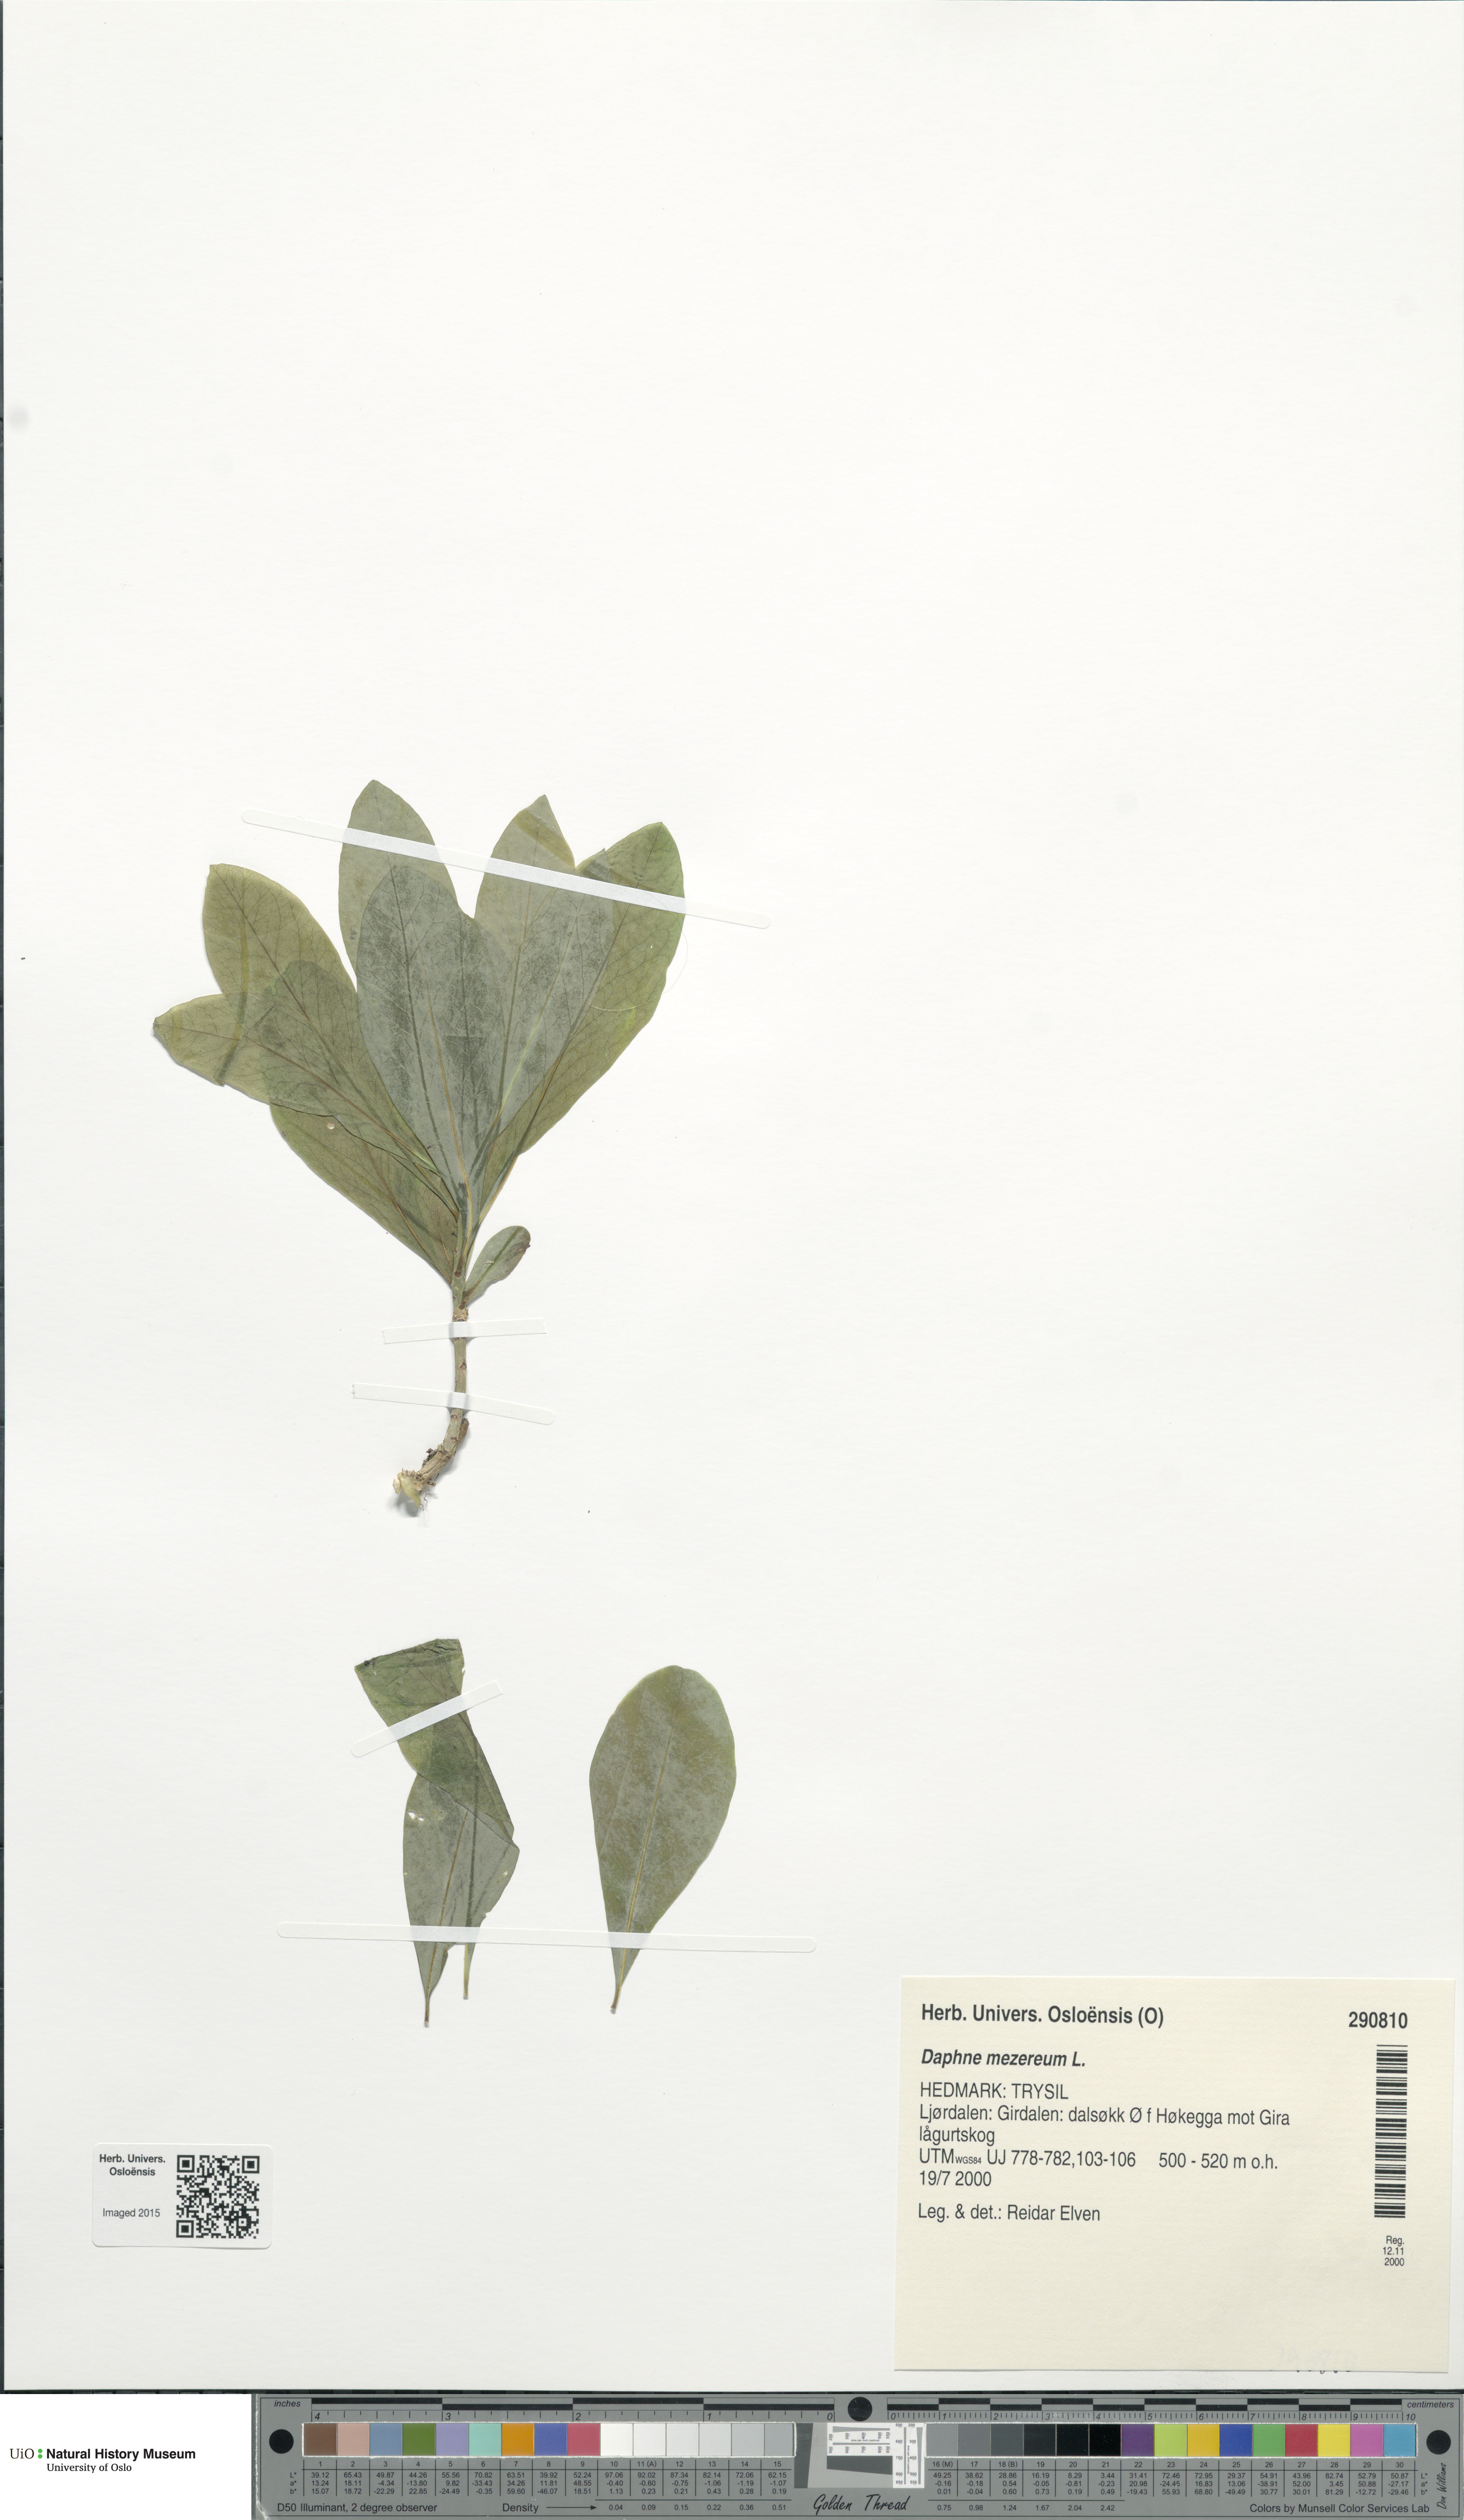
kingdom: Plantae
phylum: Tracheophyta
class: Magnoliopsida
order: Malvales
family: Thymelaeaceae
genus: Daphne
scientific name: Daphne mezereum
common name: Mezereon
